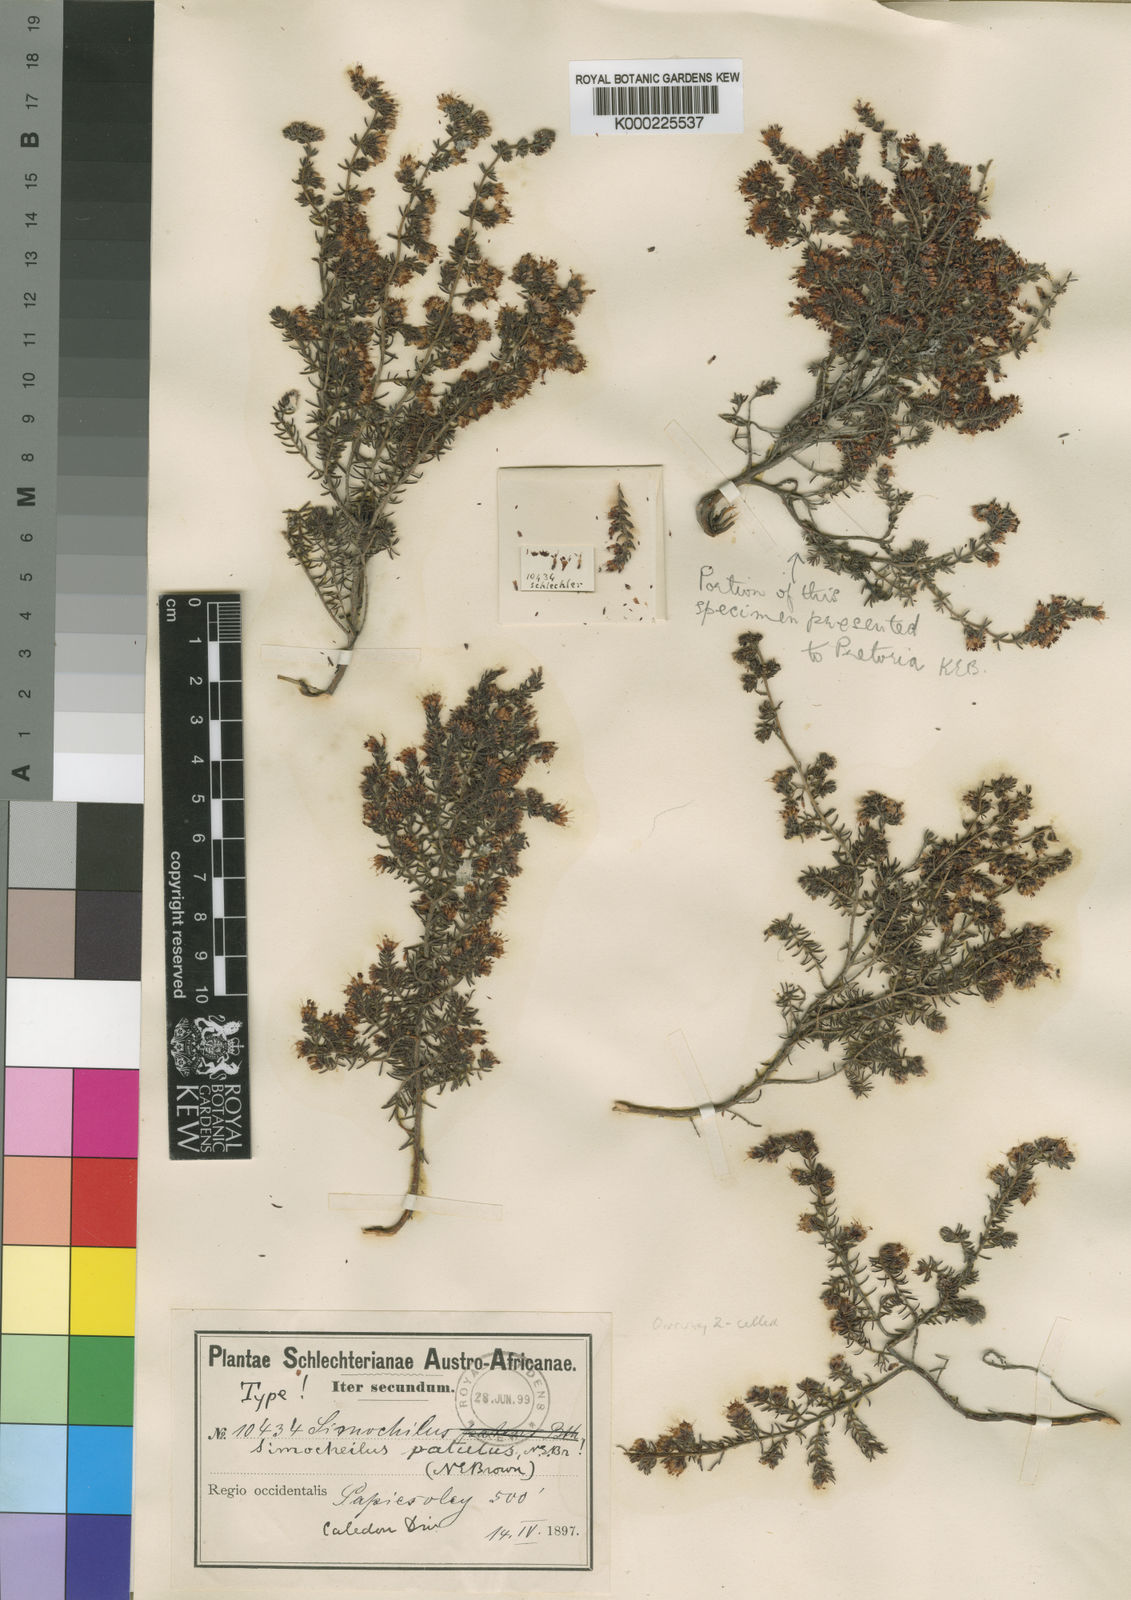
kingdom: Plantae
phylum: Tracheophyta
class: Magnoliopsida
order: Ericales
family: Ericaceae
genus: Erica
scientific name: Erica glabella
